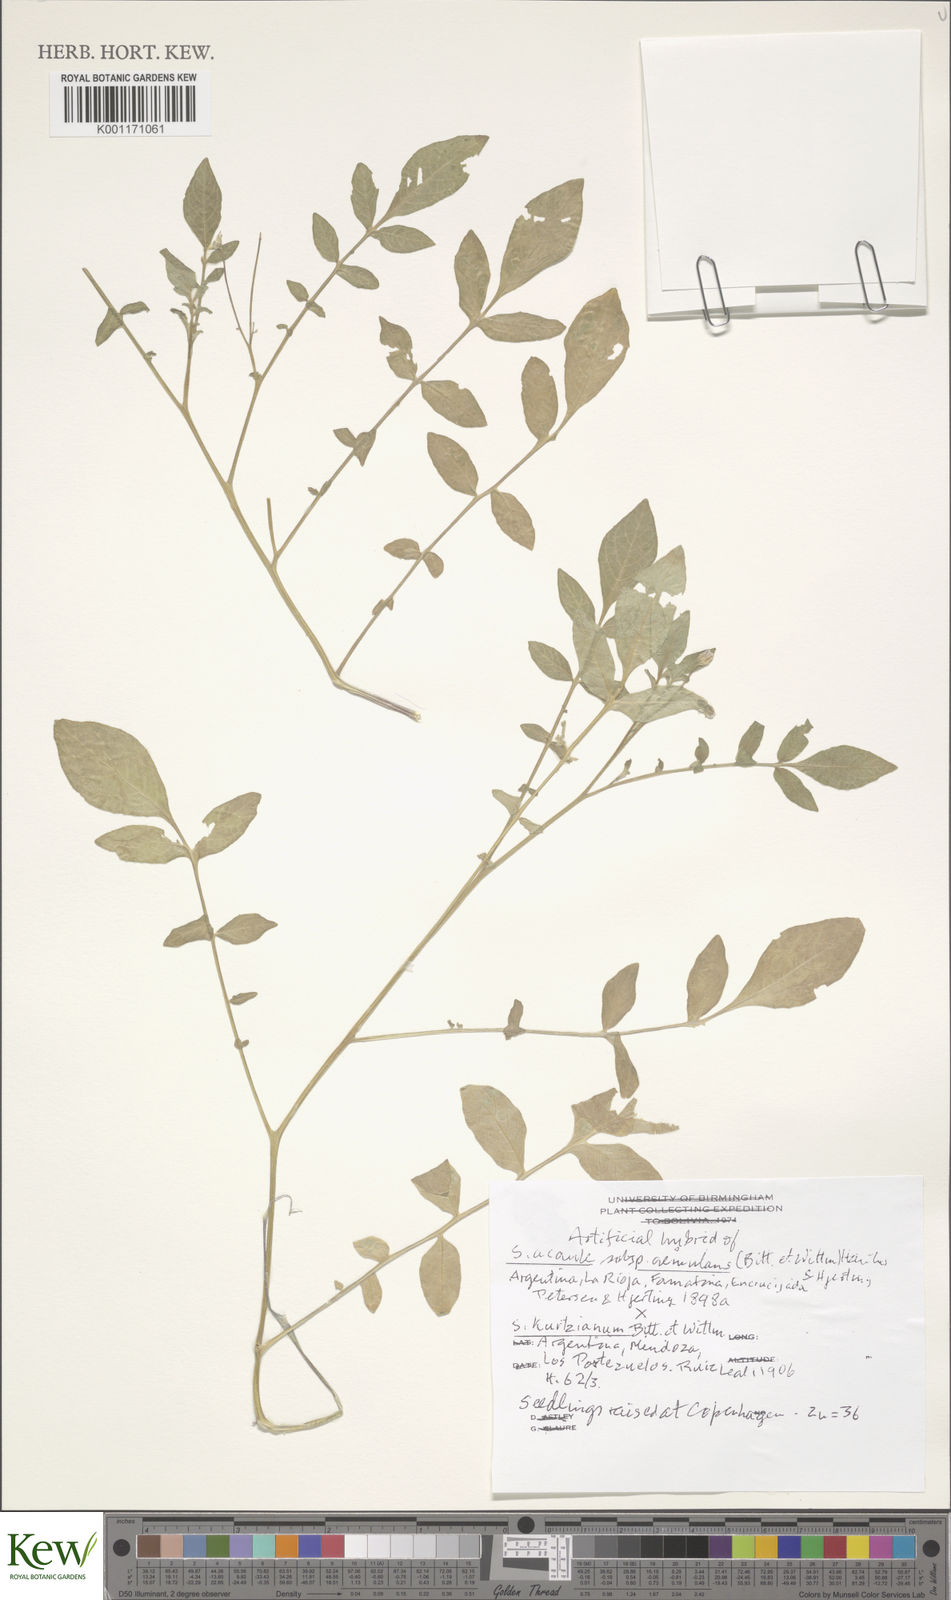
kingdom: Plantae
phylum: Tracheophyta
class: Magnoliopsida
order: Solanales
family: Solanaceae
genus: Solanum
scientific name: Solanum aemulans
